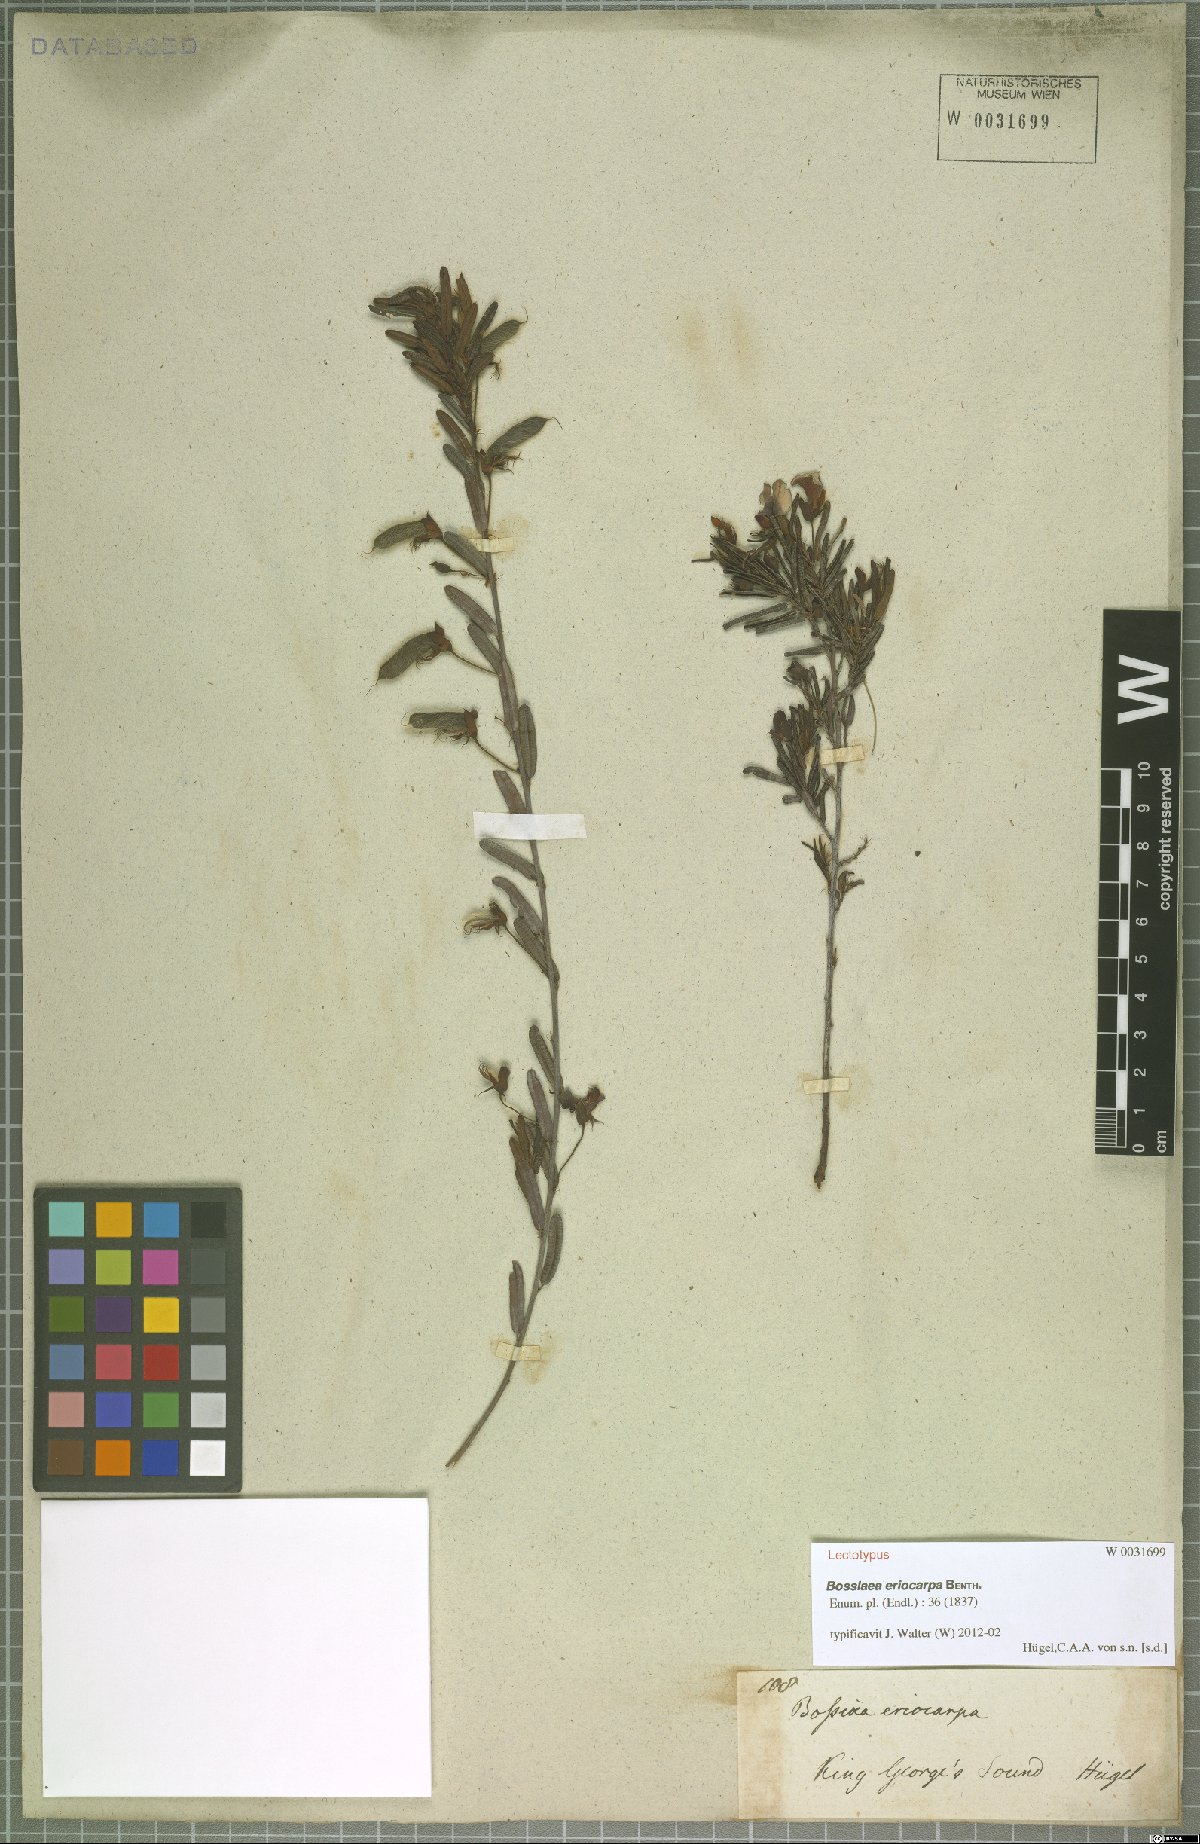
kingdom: Plantae
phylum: Tracheophyta
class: Magnoliopsida
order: Fabales
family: Fabaceae
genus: Bossiaea
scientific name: Bossiaea eriocarpa
